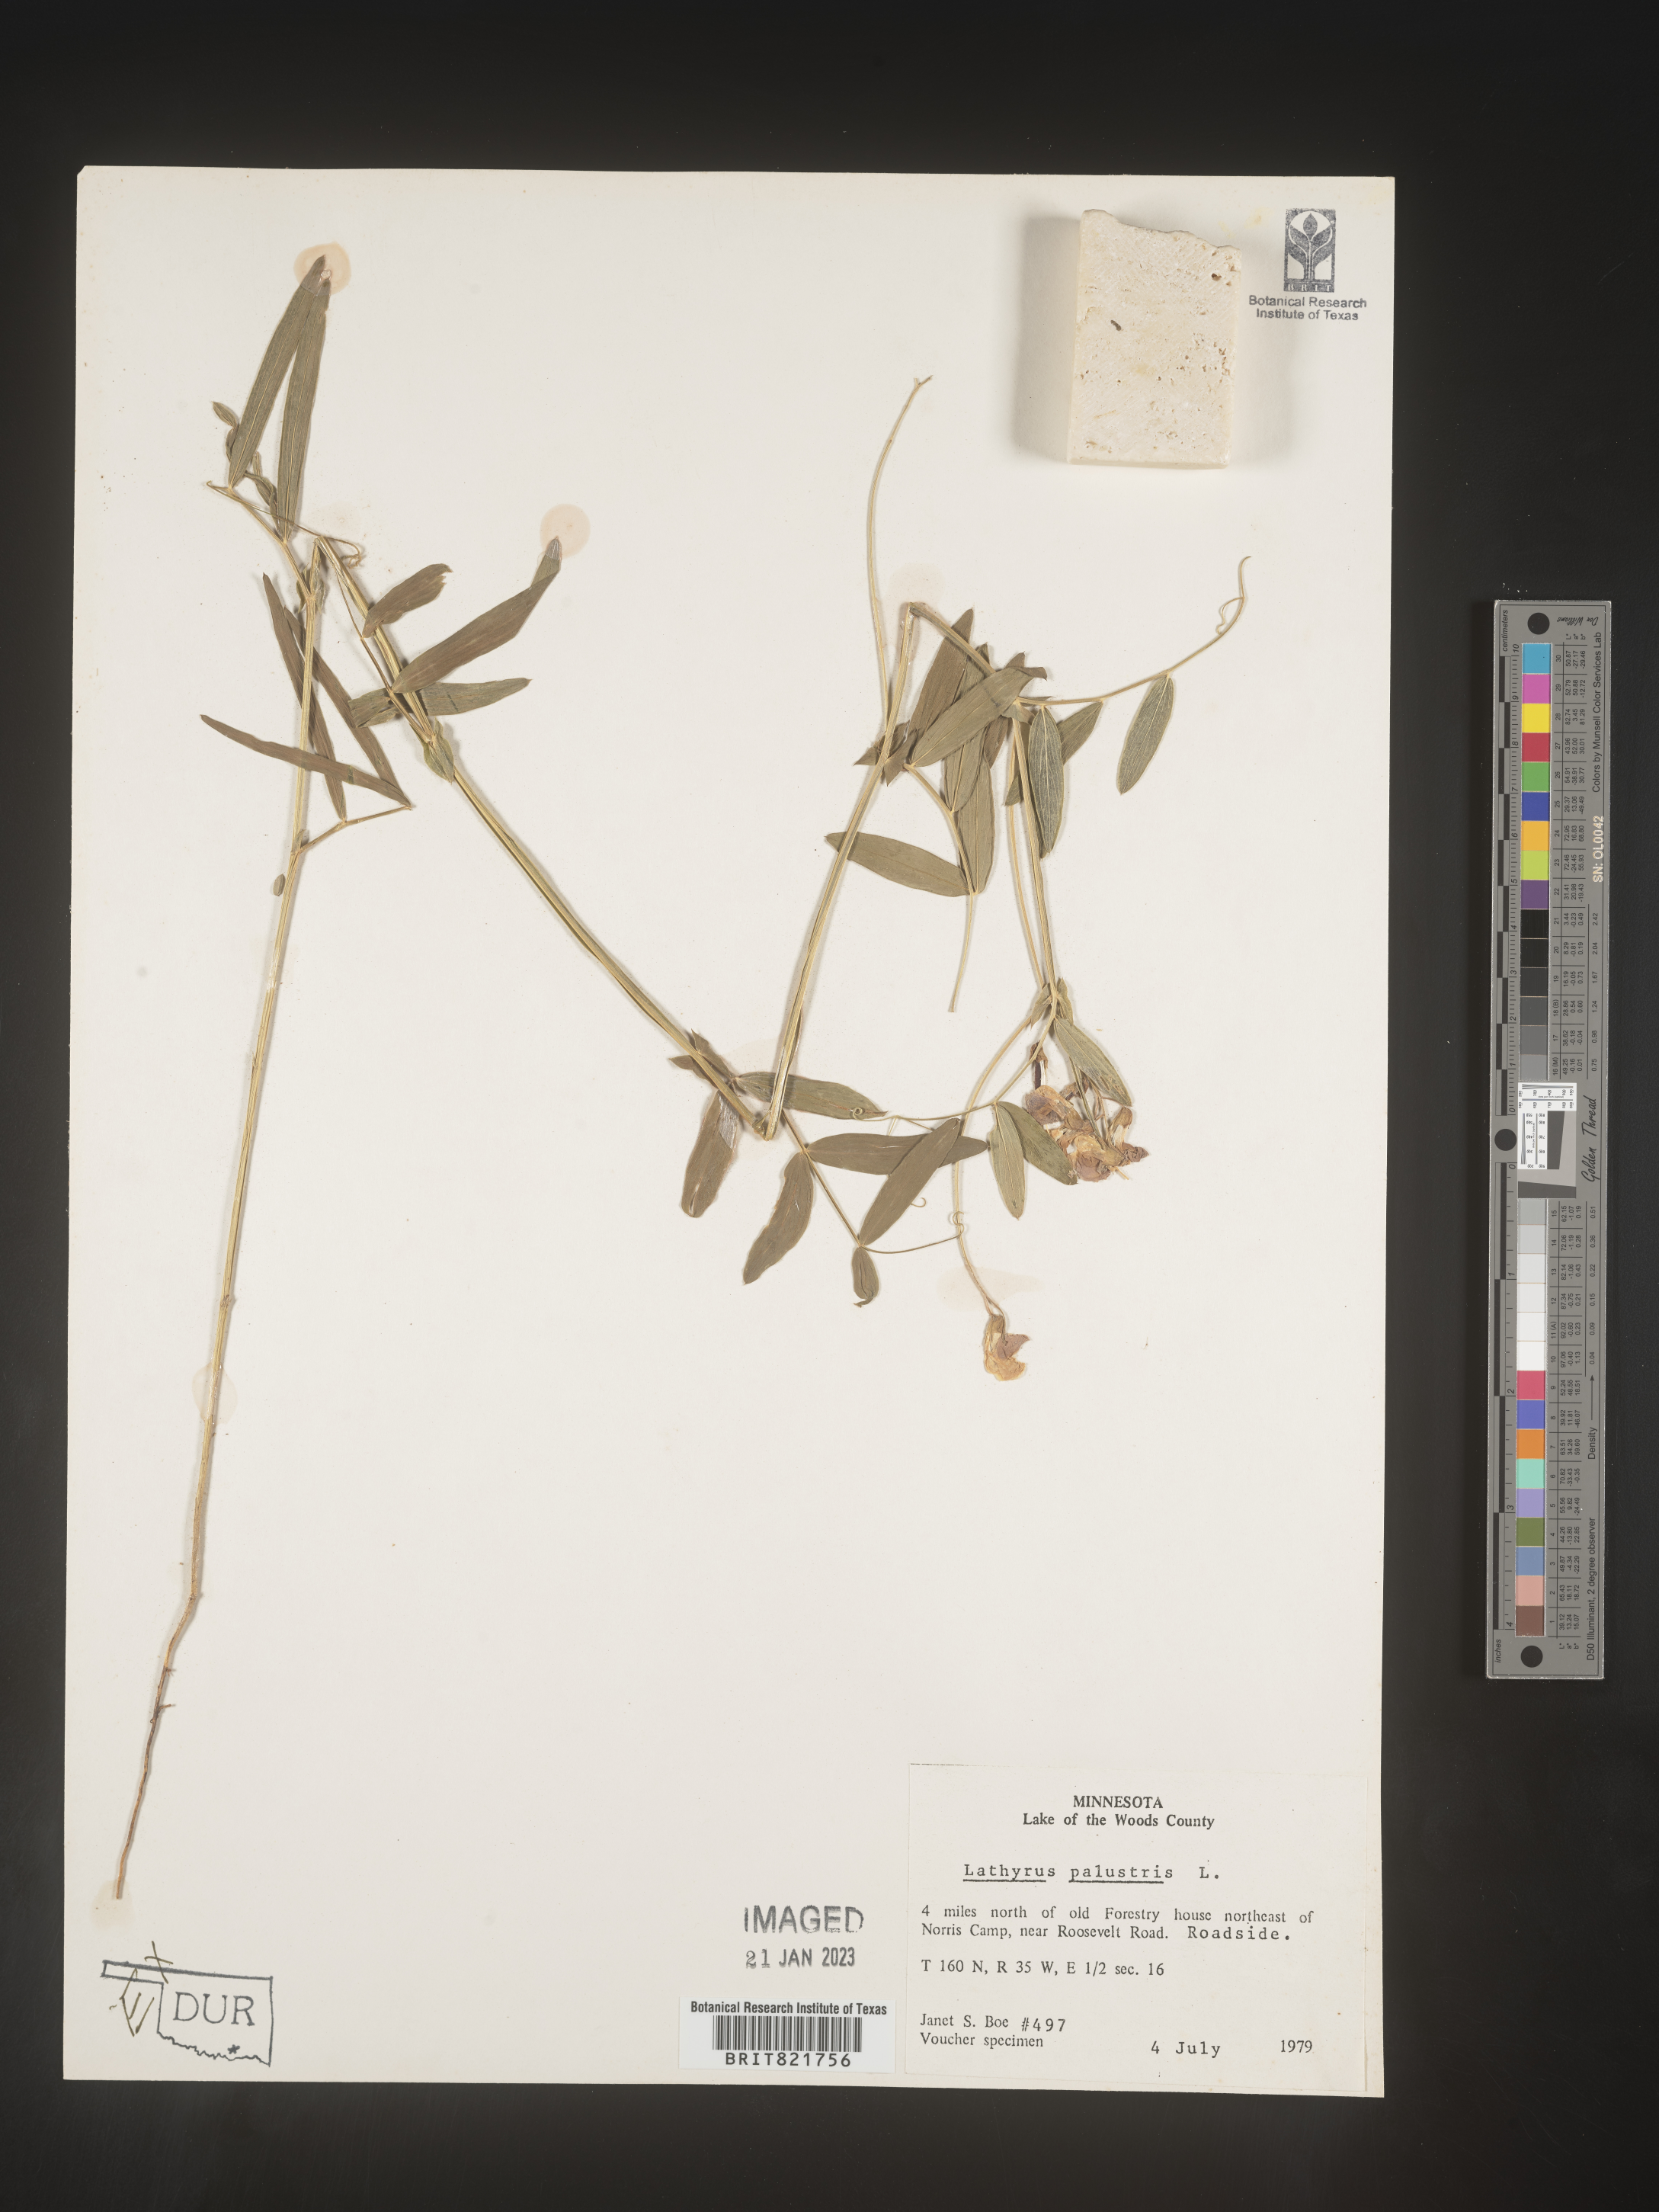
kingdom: Plantae
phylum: Tracheophyta
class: Magnoliopsida
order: Fabales
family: Fabaceae
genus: Lathyrus
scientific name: Lathyrus palustris
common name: Marsh pea
